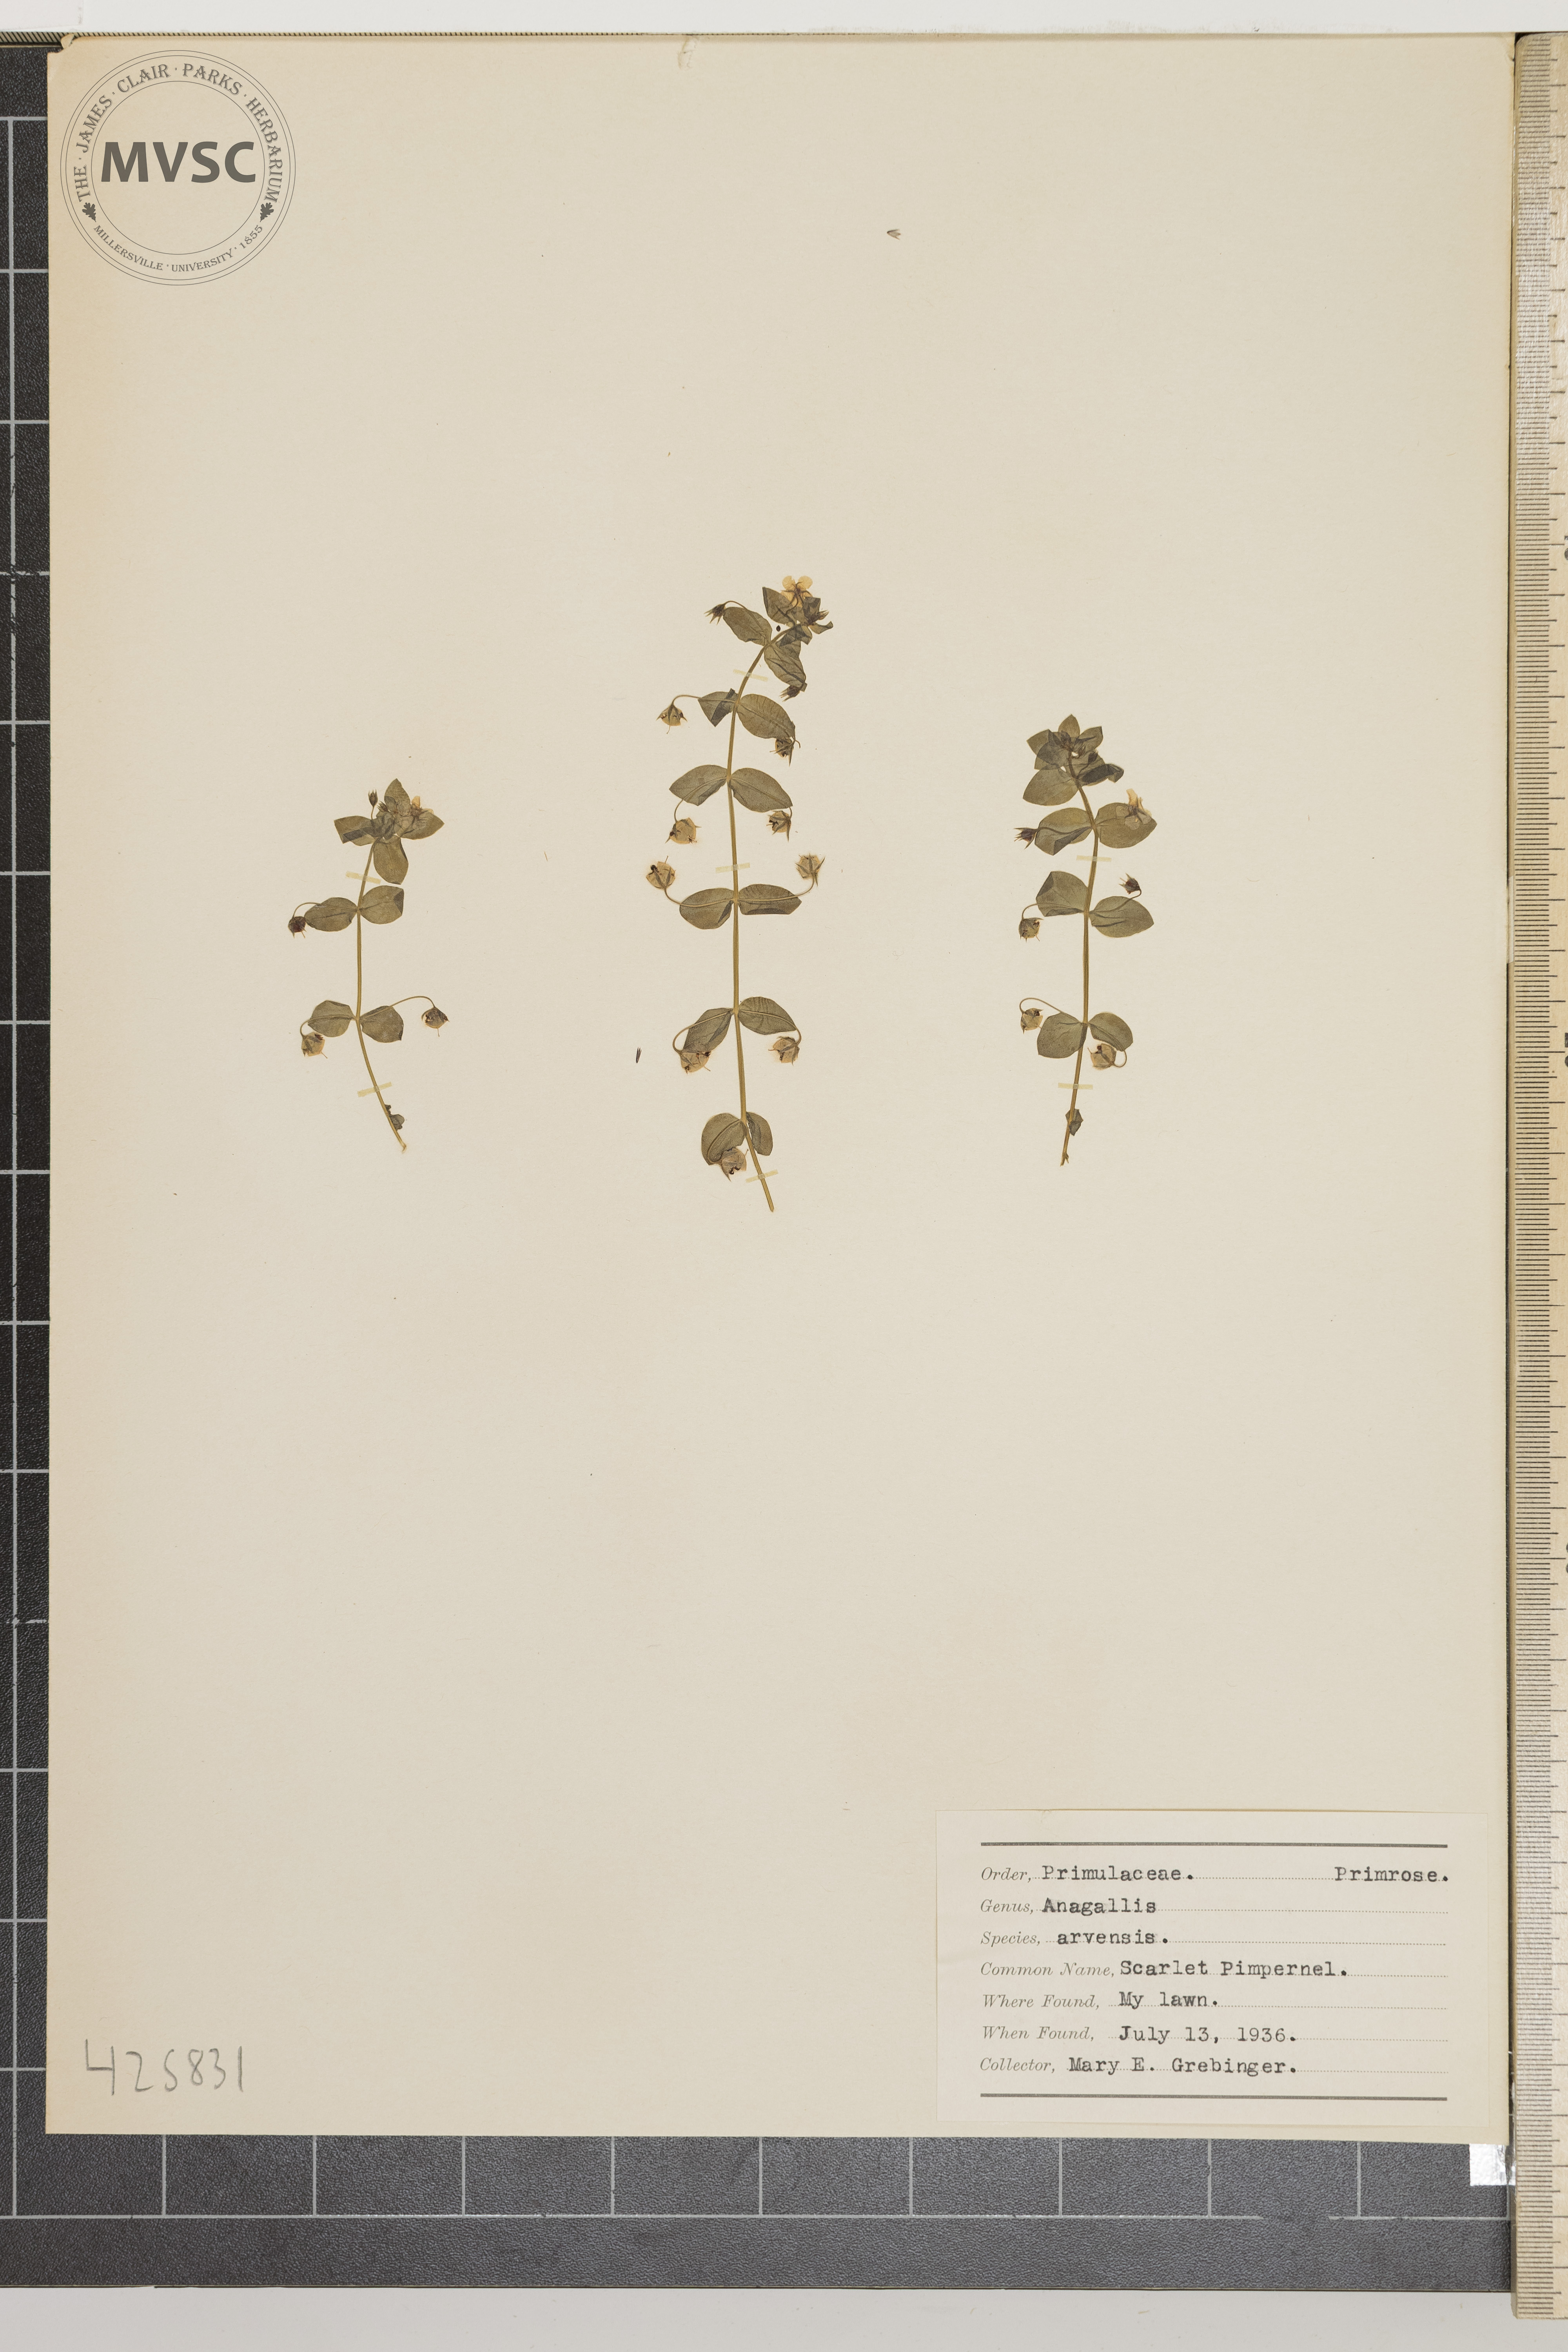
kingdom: Plantae
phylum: Tracheophyta
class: Magnoliopsida
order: Ericales
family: Primulaceae
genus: Lysimachia
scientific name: Lysimachia arvensis
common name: Scarlet Pimpernel
